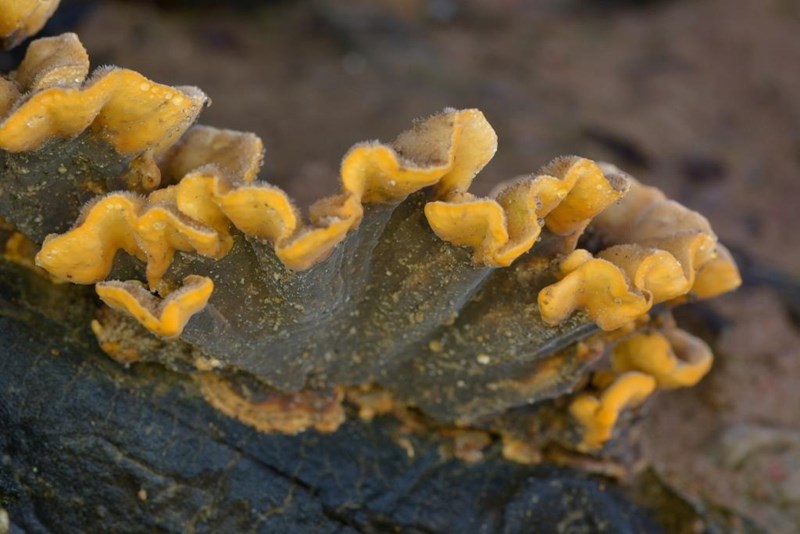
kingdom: Fungi
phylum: Basidiomycota
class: Agaricomycetes
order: Russulales
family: Stereaceae
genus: Stereum
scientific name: Stereum hirsutum
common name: håret lædersvamp
